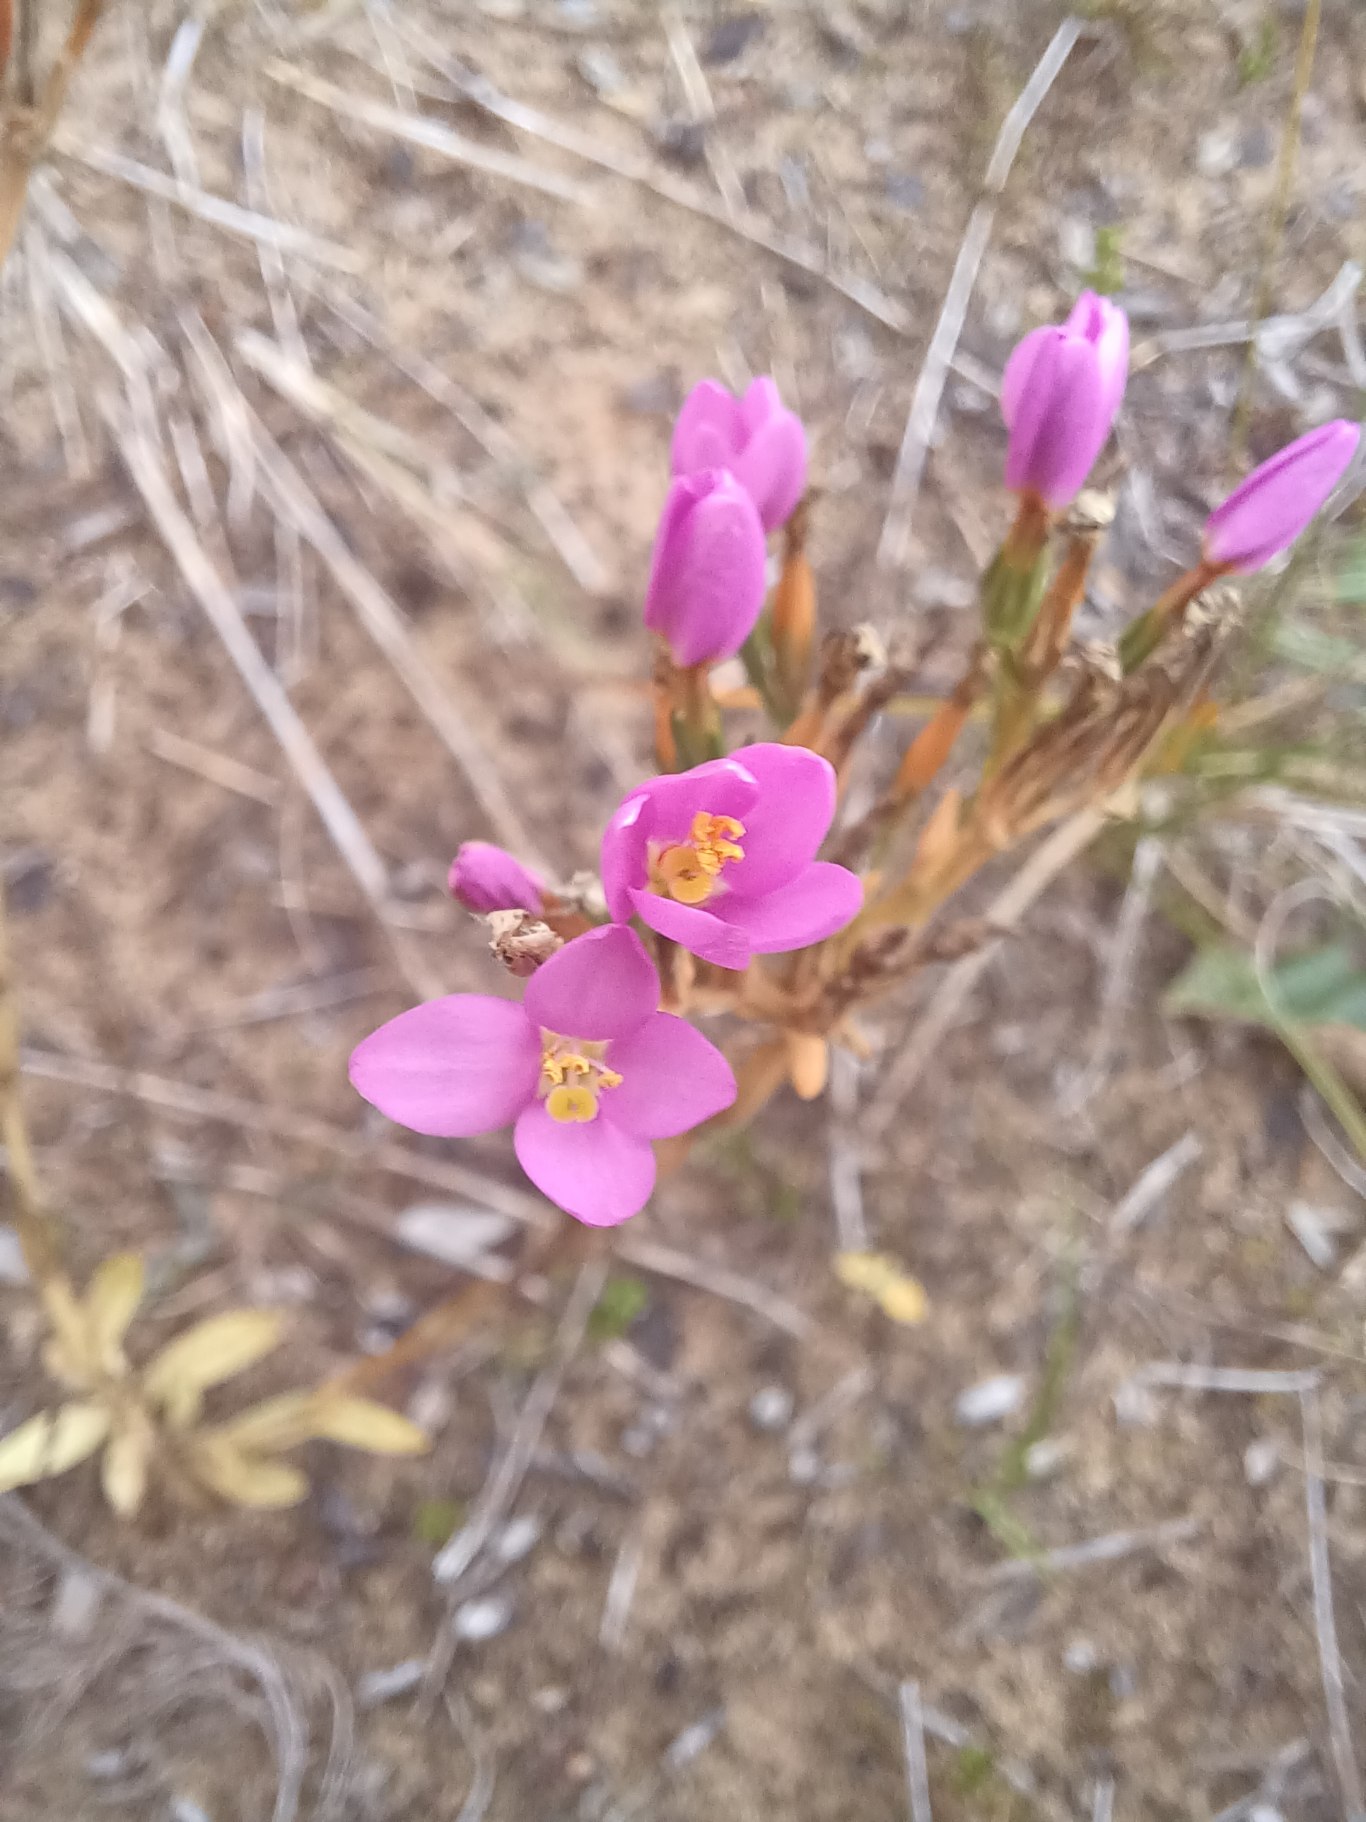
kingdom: Plantae
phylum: Tracheophyta
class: Magnoliopsida
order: Gentianales
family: Gentianaceae
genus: Centaurium
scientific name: Centaurium erythraea
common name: Mark-tusindgylden
